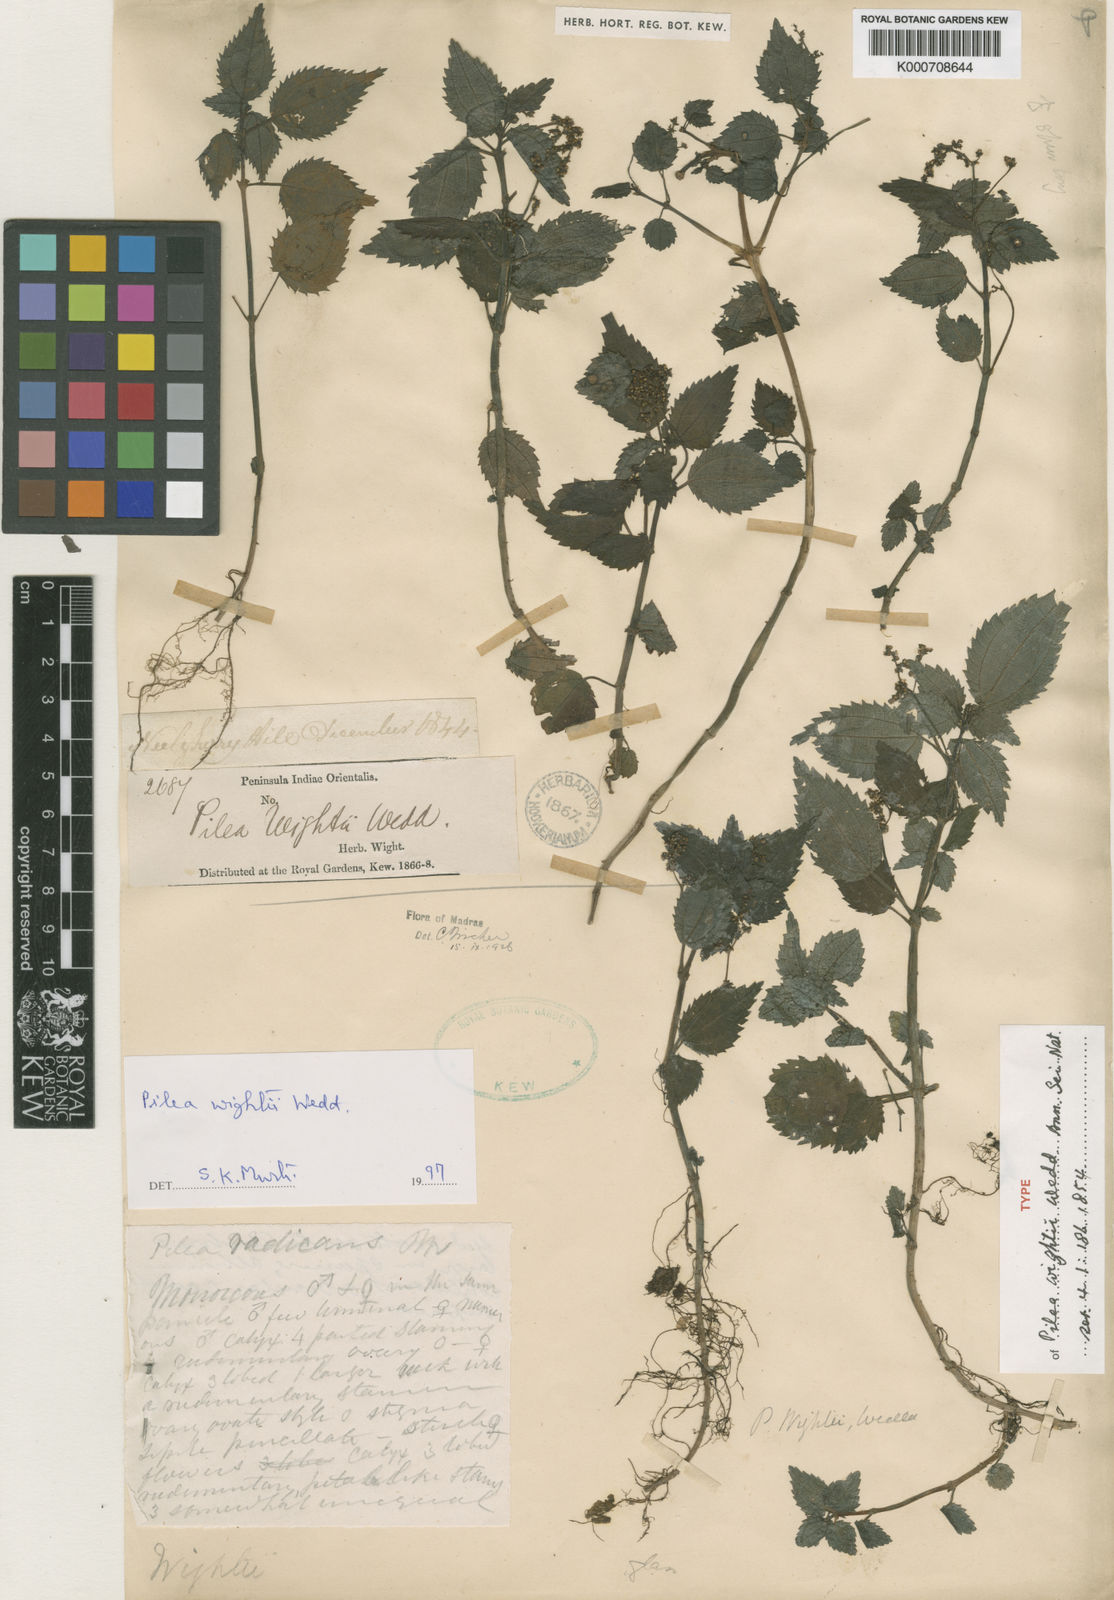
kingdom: Plantae
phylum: Tracheophyta
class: Magnoliopsida
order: Rosales
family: Urticaceae
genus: Pilea
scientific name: Pilea wightii
